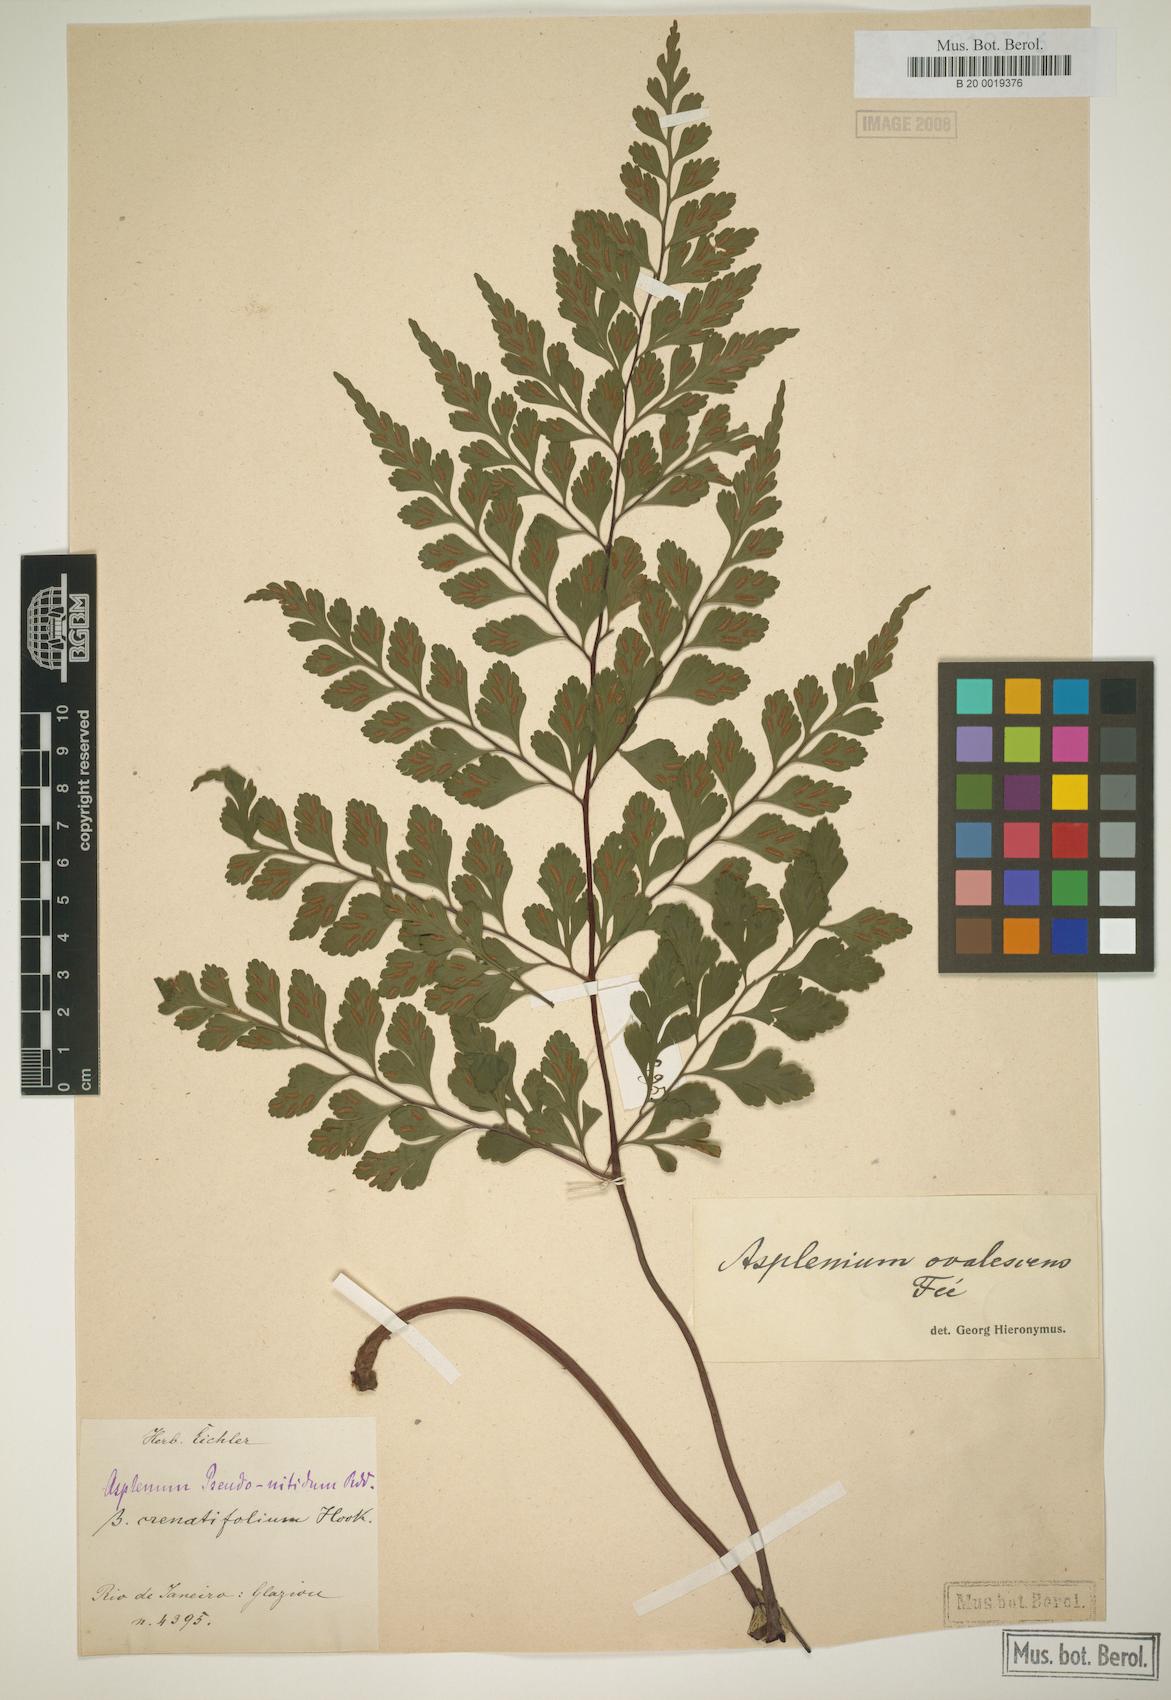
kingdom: Plantae
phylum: Tracheophyta
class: Polypodiopsida
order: Polypodiales
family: Aspleniaceae
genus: Asplenium
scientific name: Asplenium pseudonitidum
